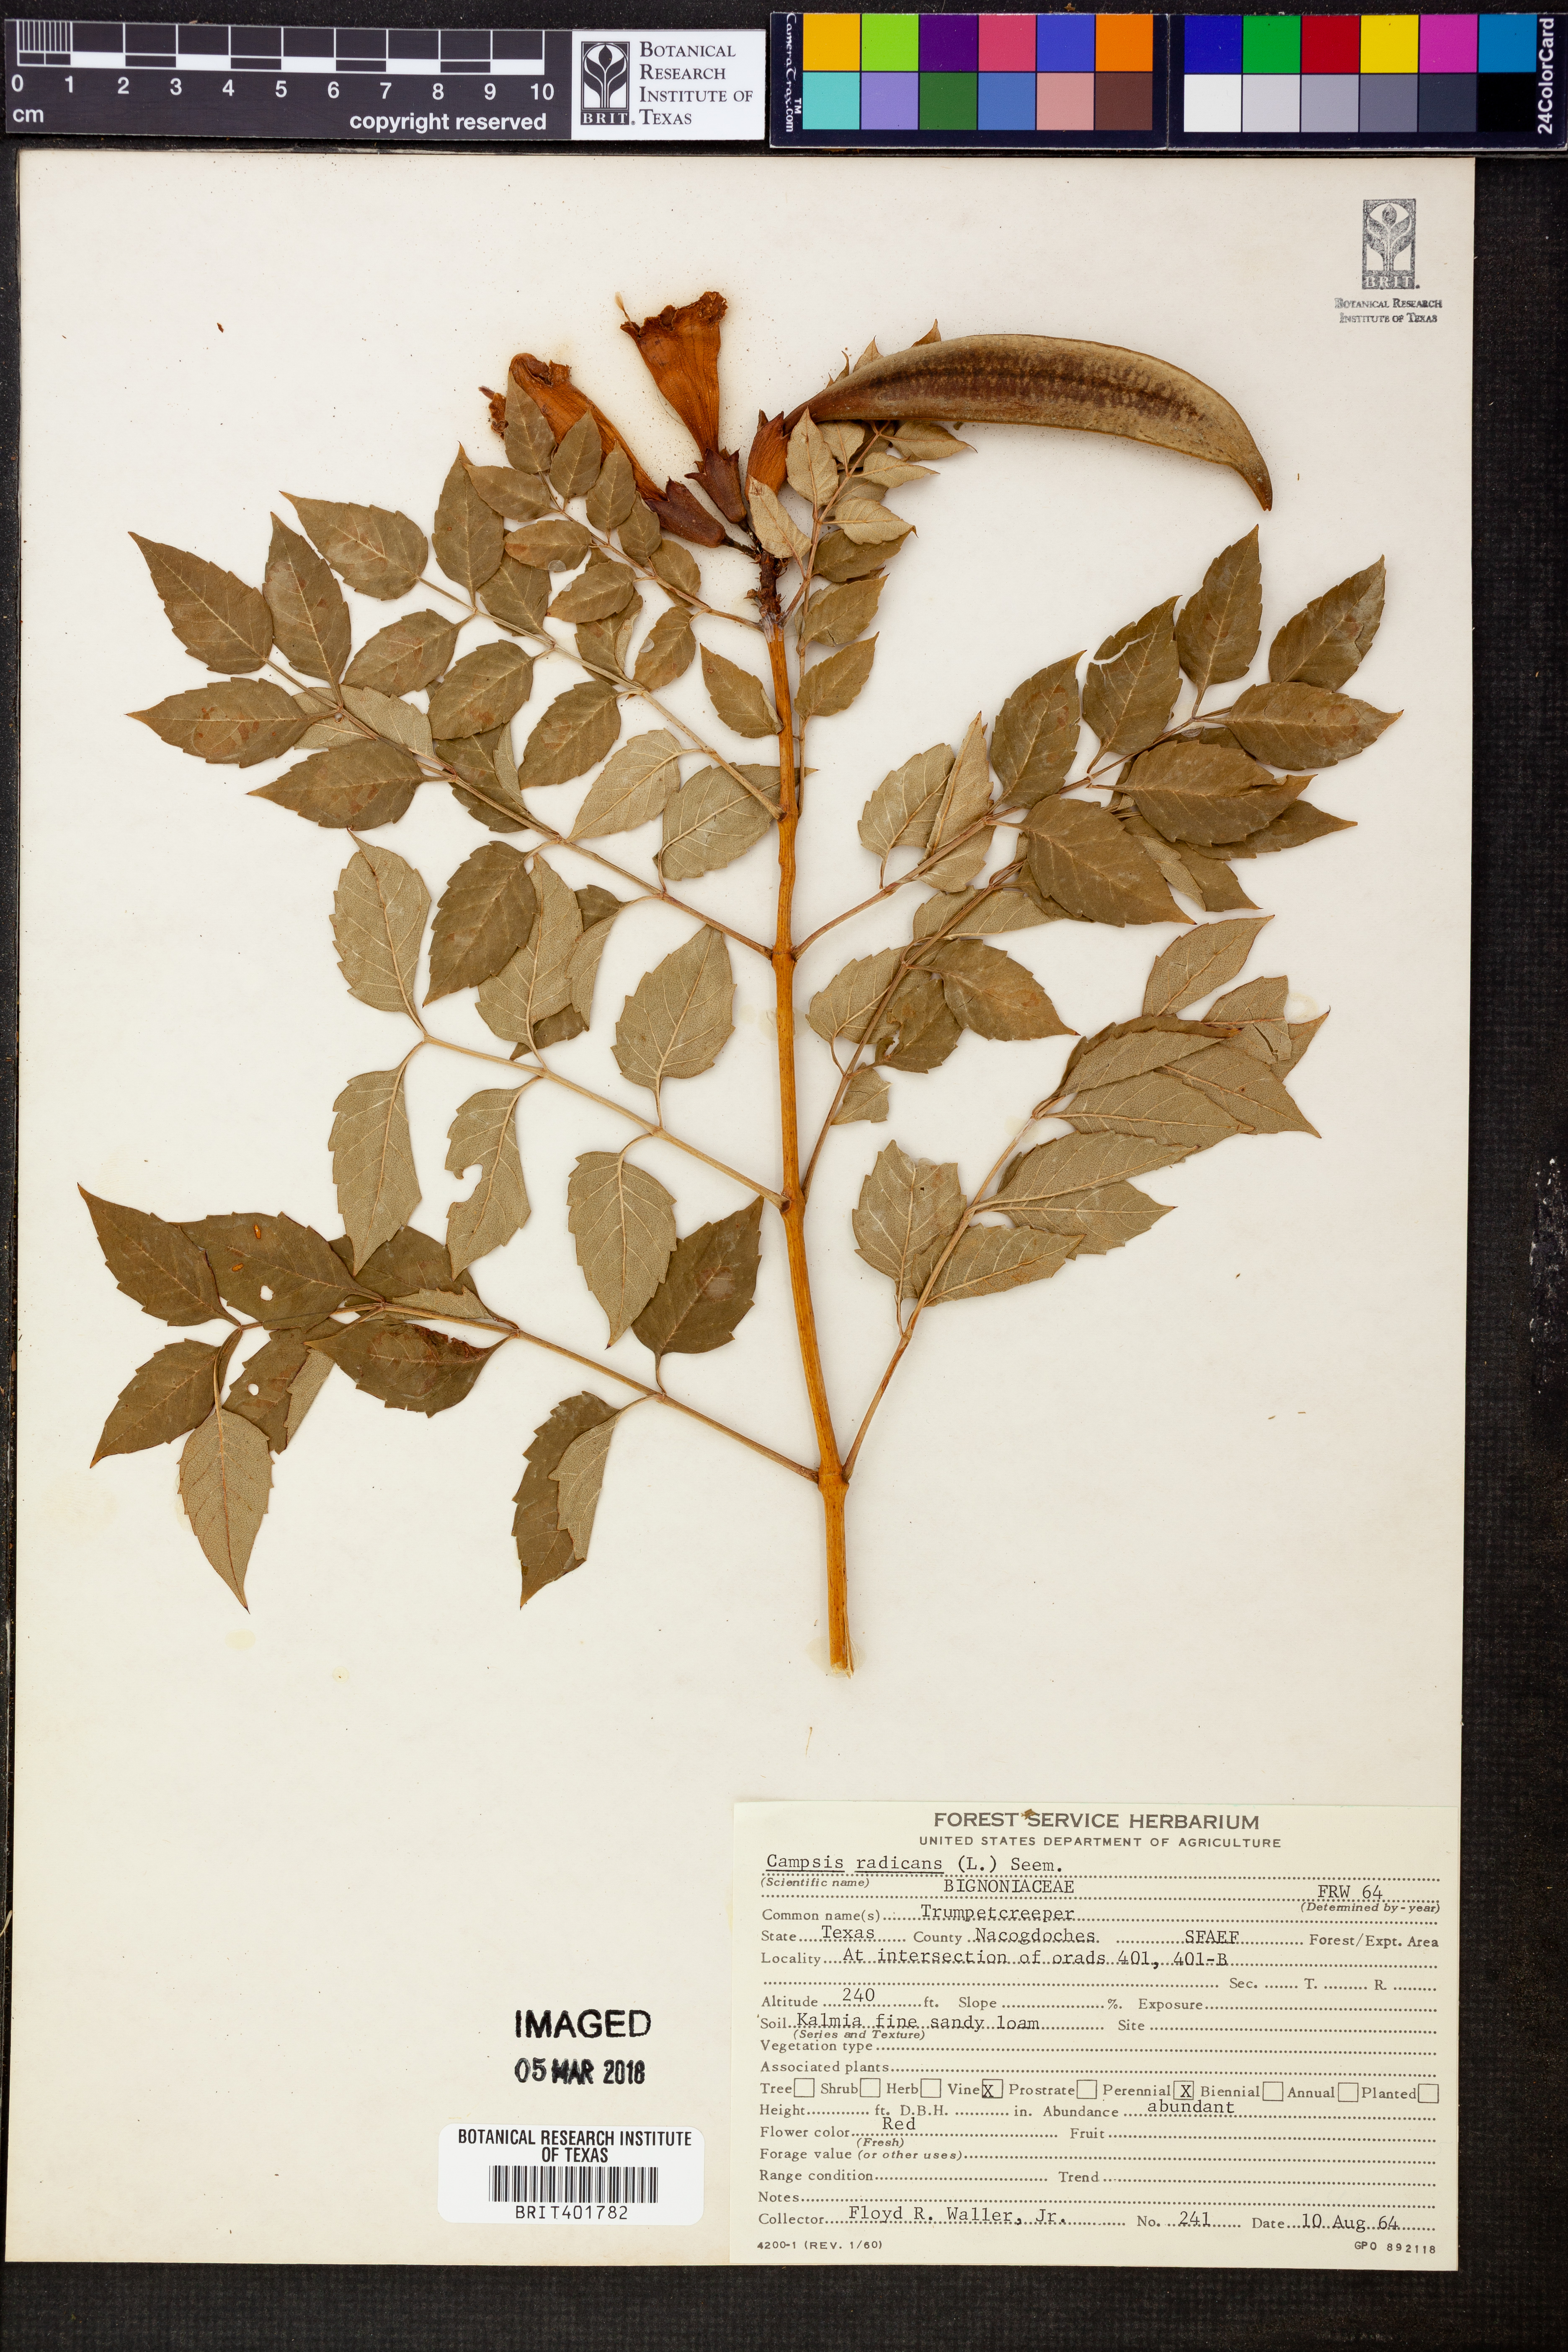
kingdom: Plantae
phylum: Tracheophyta
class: Magnoliopsida
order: Lamiales
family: Bignoniaceae
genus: Campsis
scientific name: Campsis radicans
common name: Trumpet-creeper
